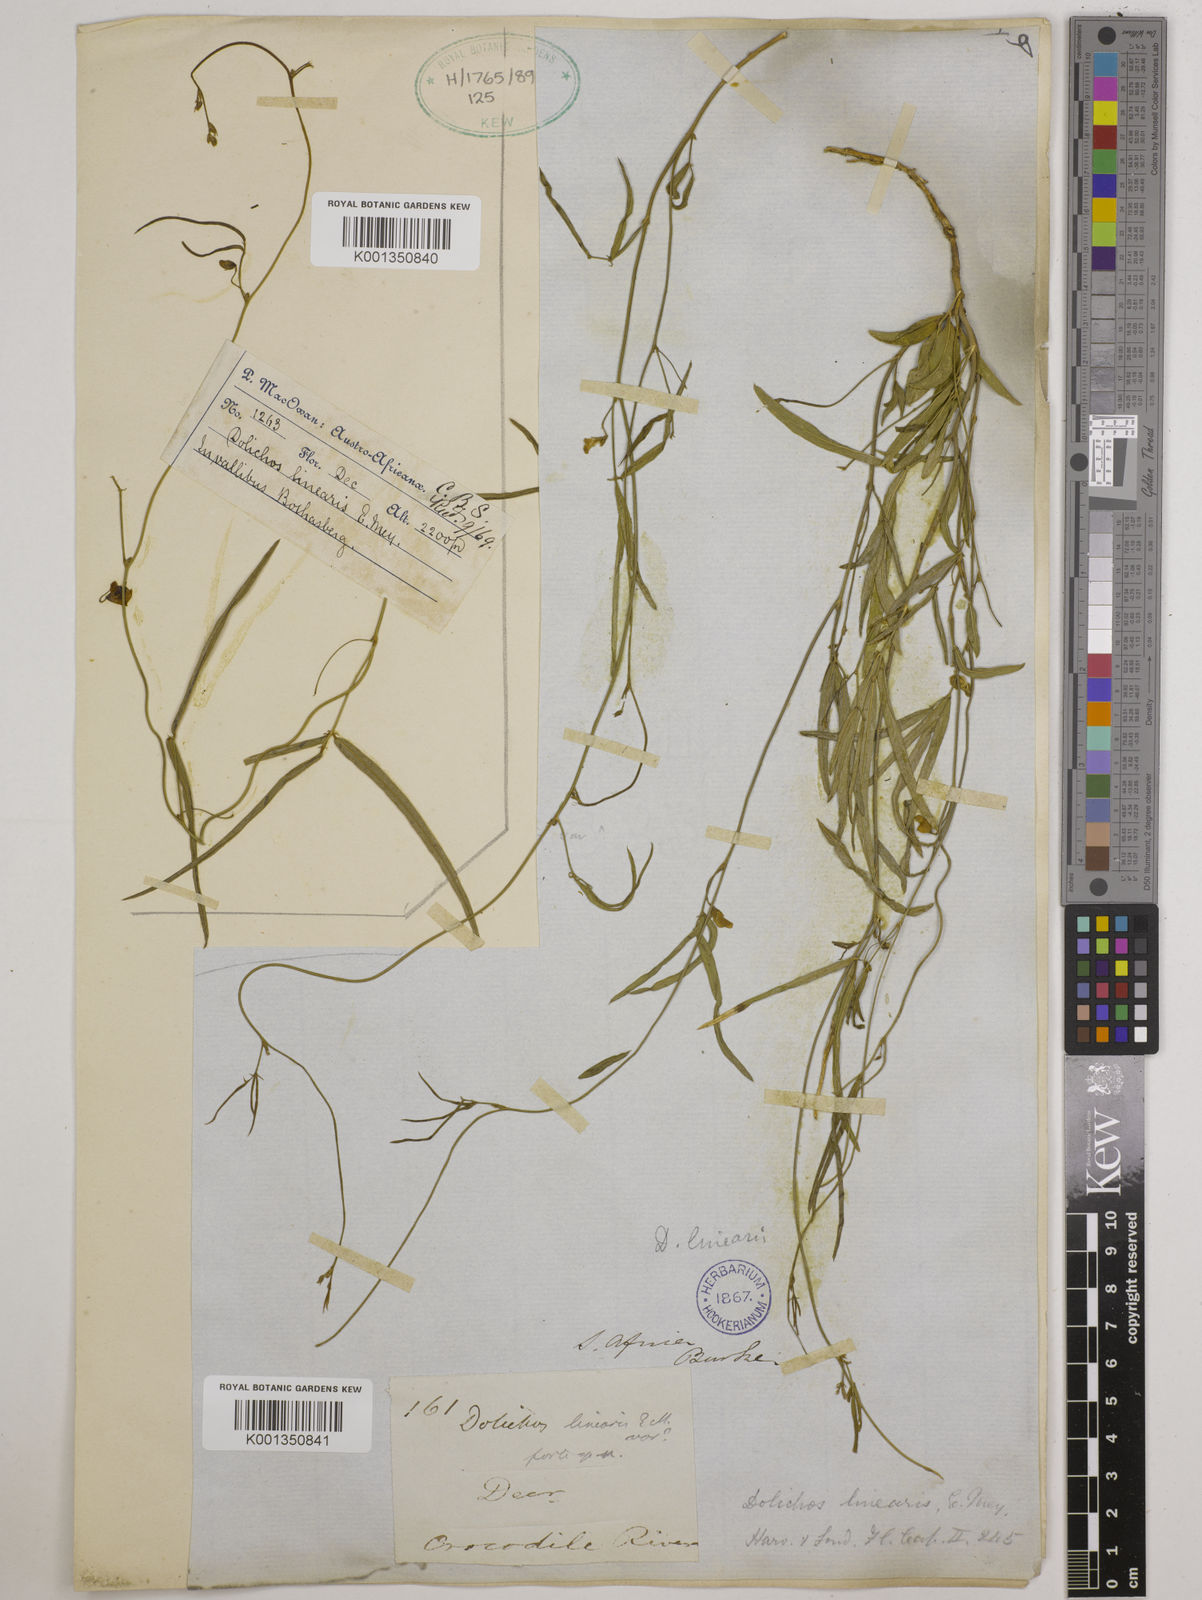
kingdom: Plantae
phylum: Tracheophyta
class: Magnoliopsida
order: Fabales
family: Fabaceae
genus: Dolichos
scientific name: Dolichos linearis
